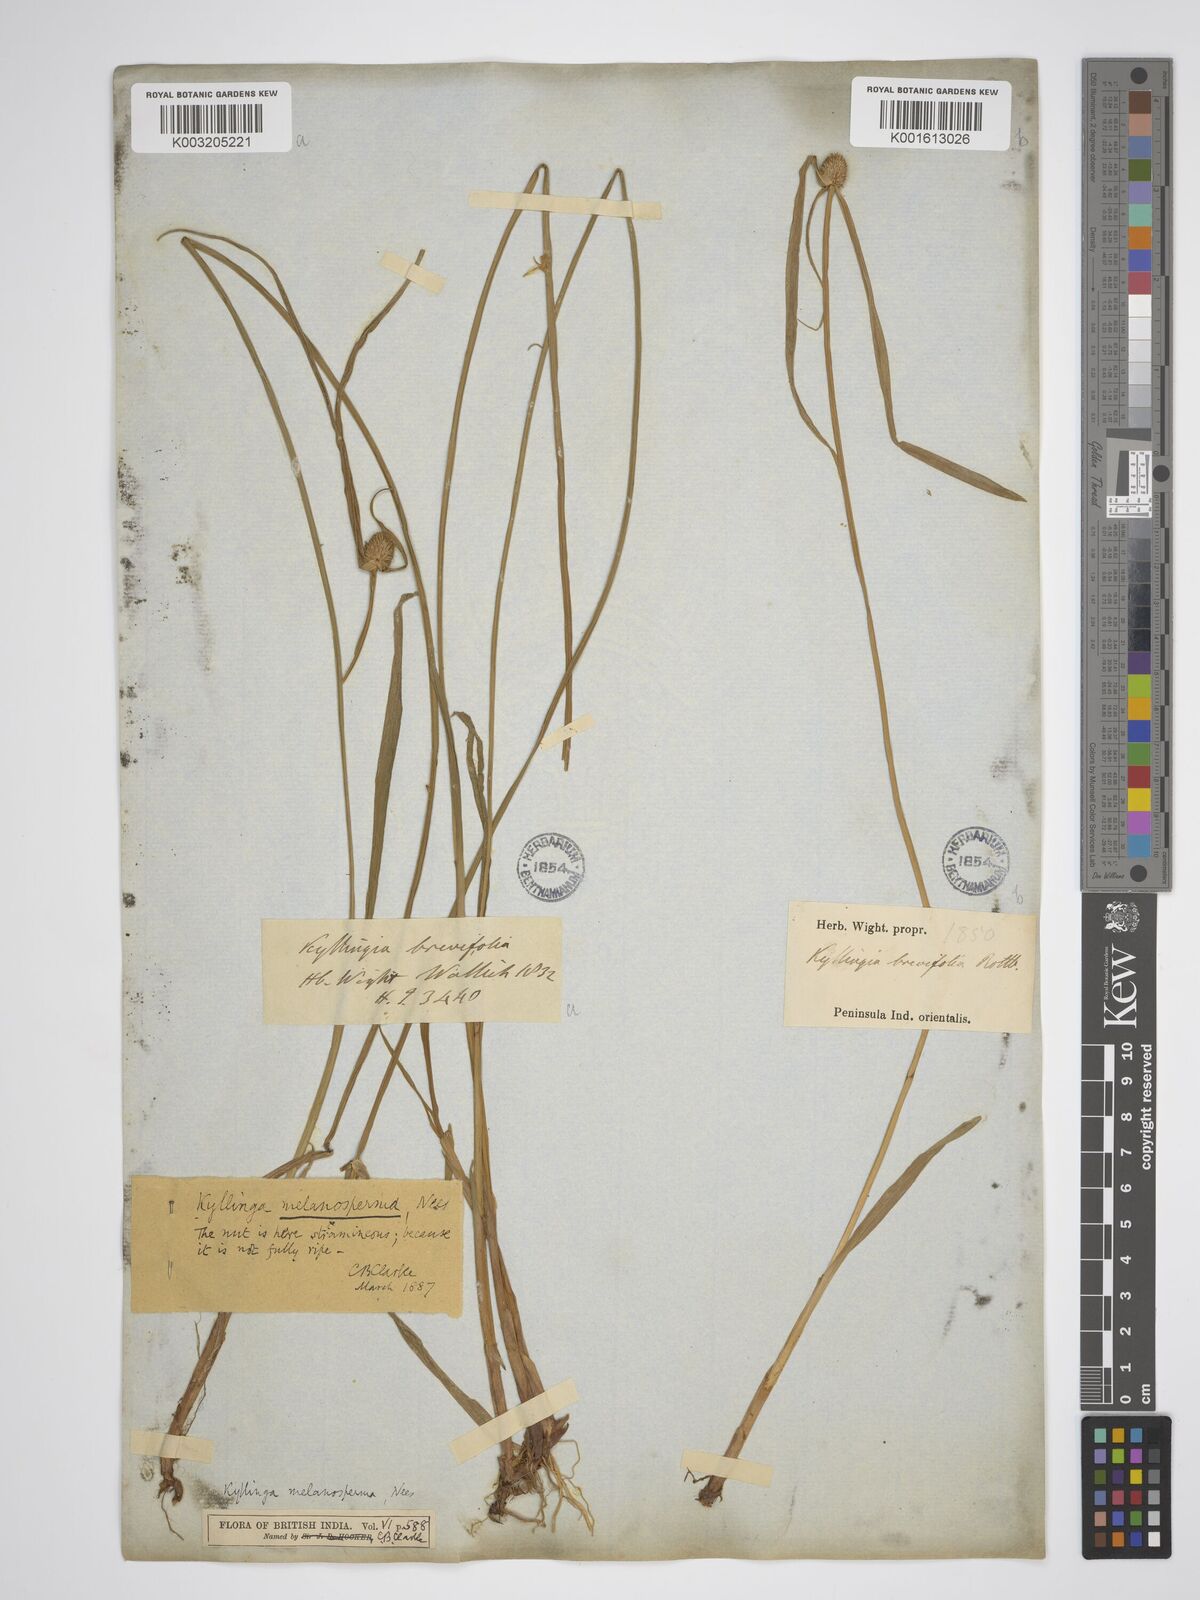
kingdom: Plantae
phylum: Tracheophyta
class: Liliopsida
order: Poales
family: Cyperaceae
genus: Cyperus
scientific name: Cyperus brevifolius
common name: Globe kyllinga
